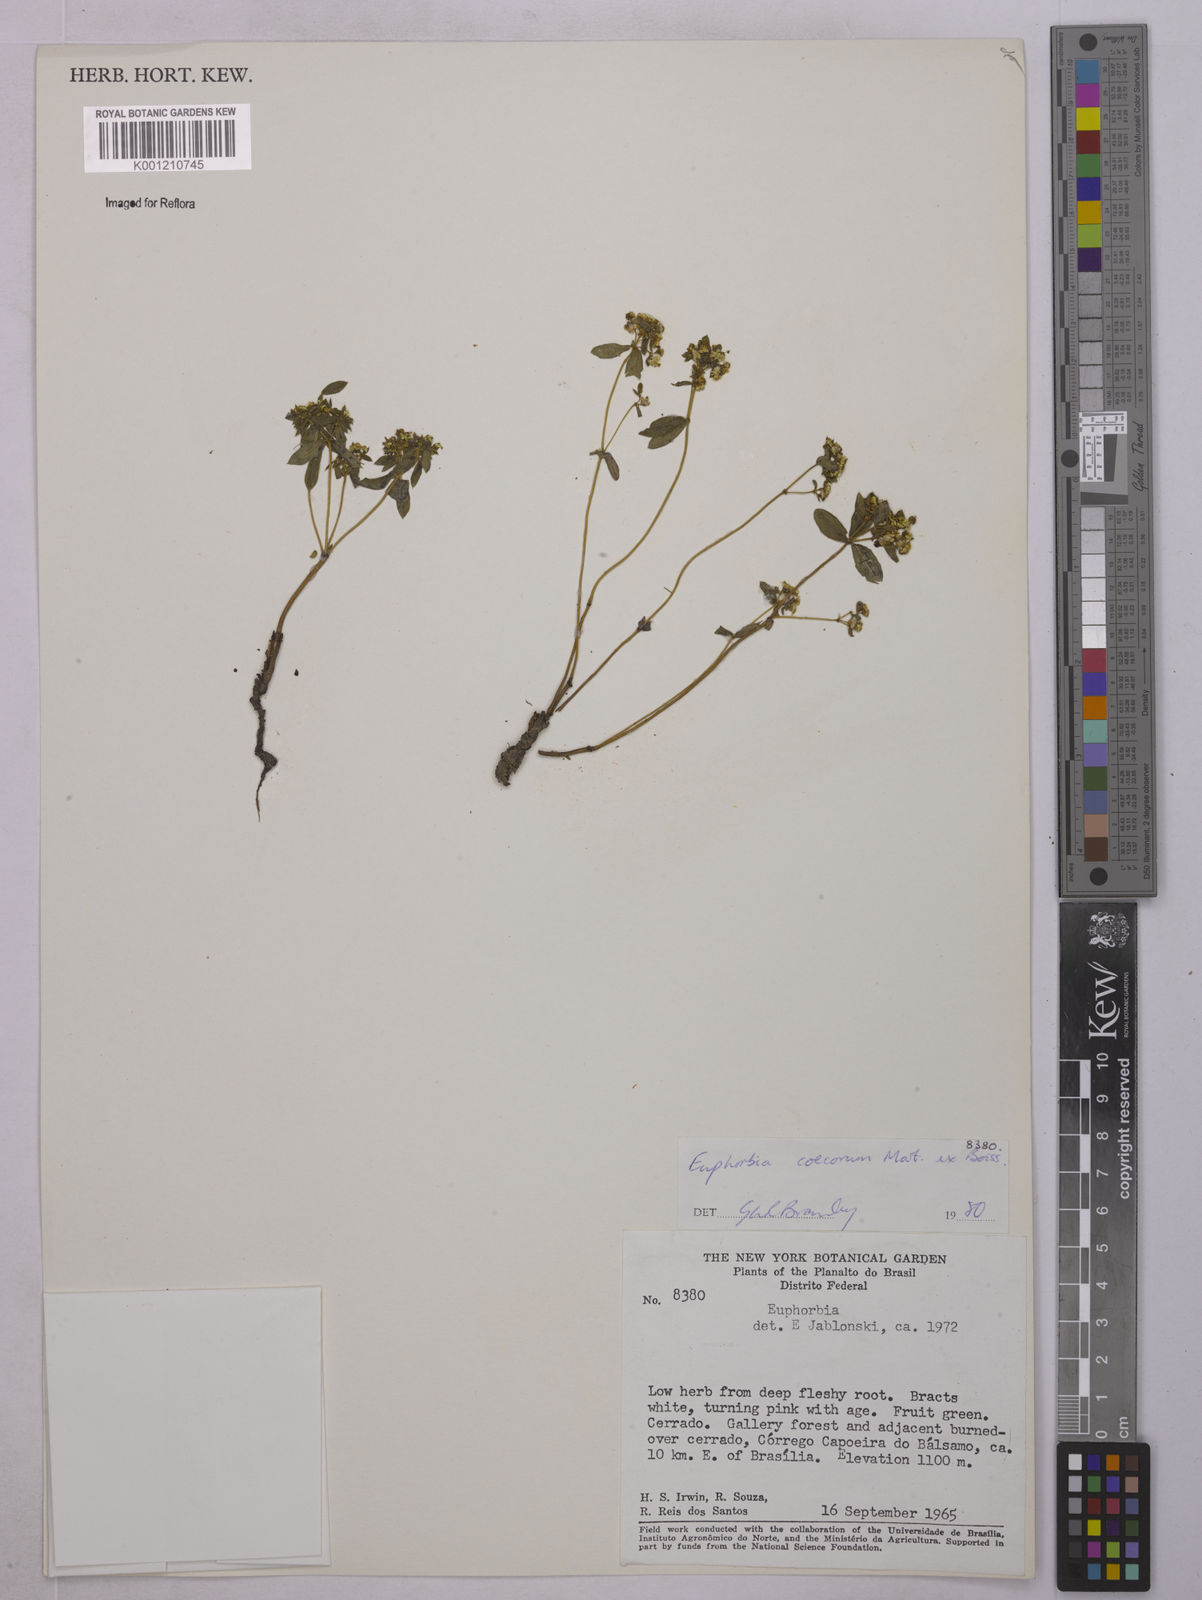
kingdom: Plantae
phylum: Tracheophyta
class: Magnoliopsida
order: Malpighiales
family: Euphorbiaceae
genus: Euphorbia
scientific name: Euphorbia potentilloides
